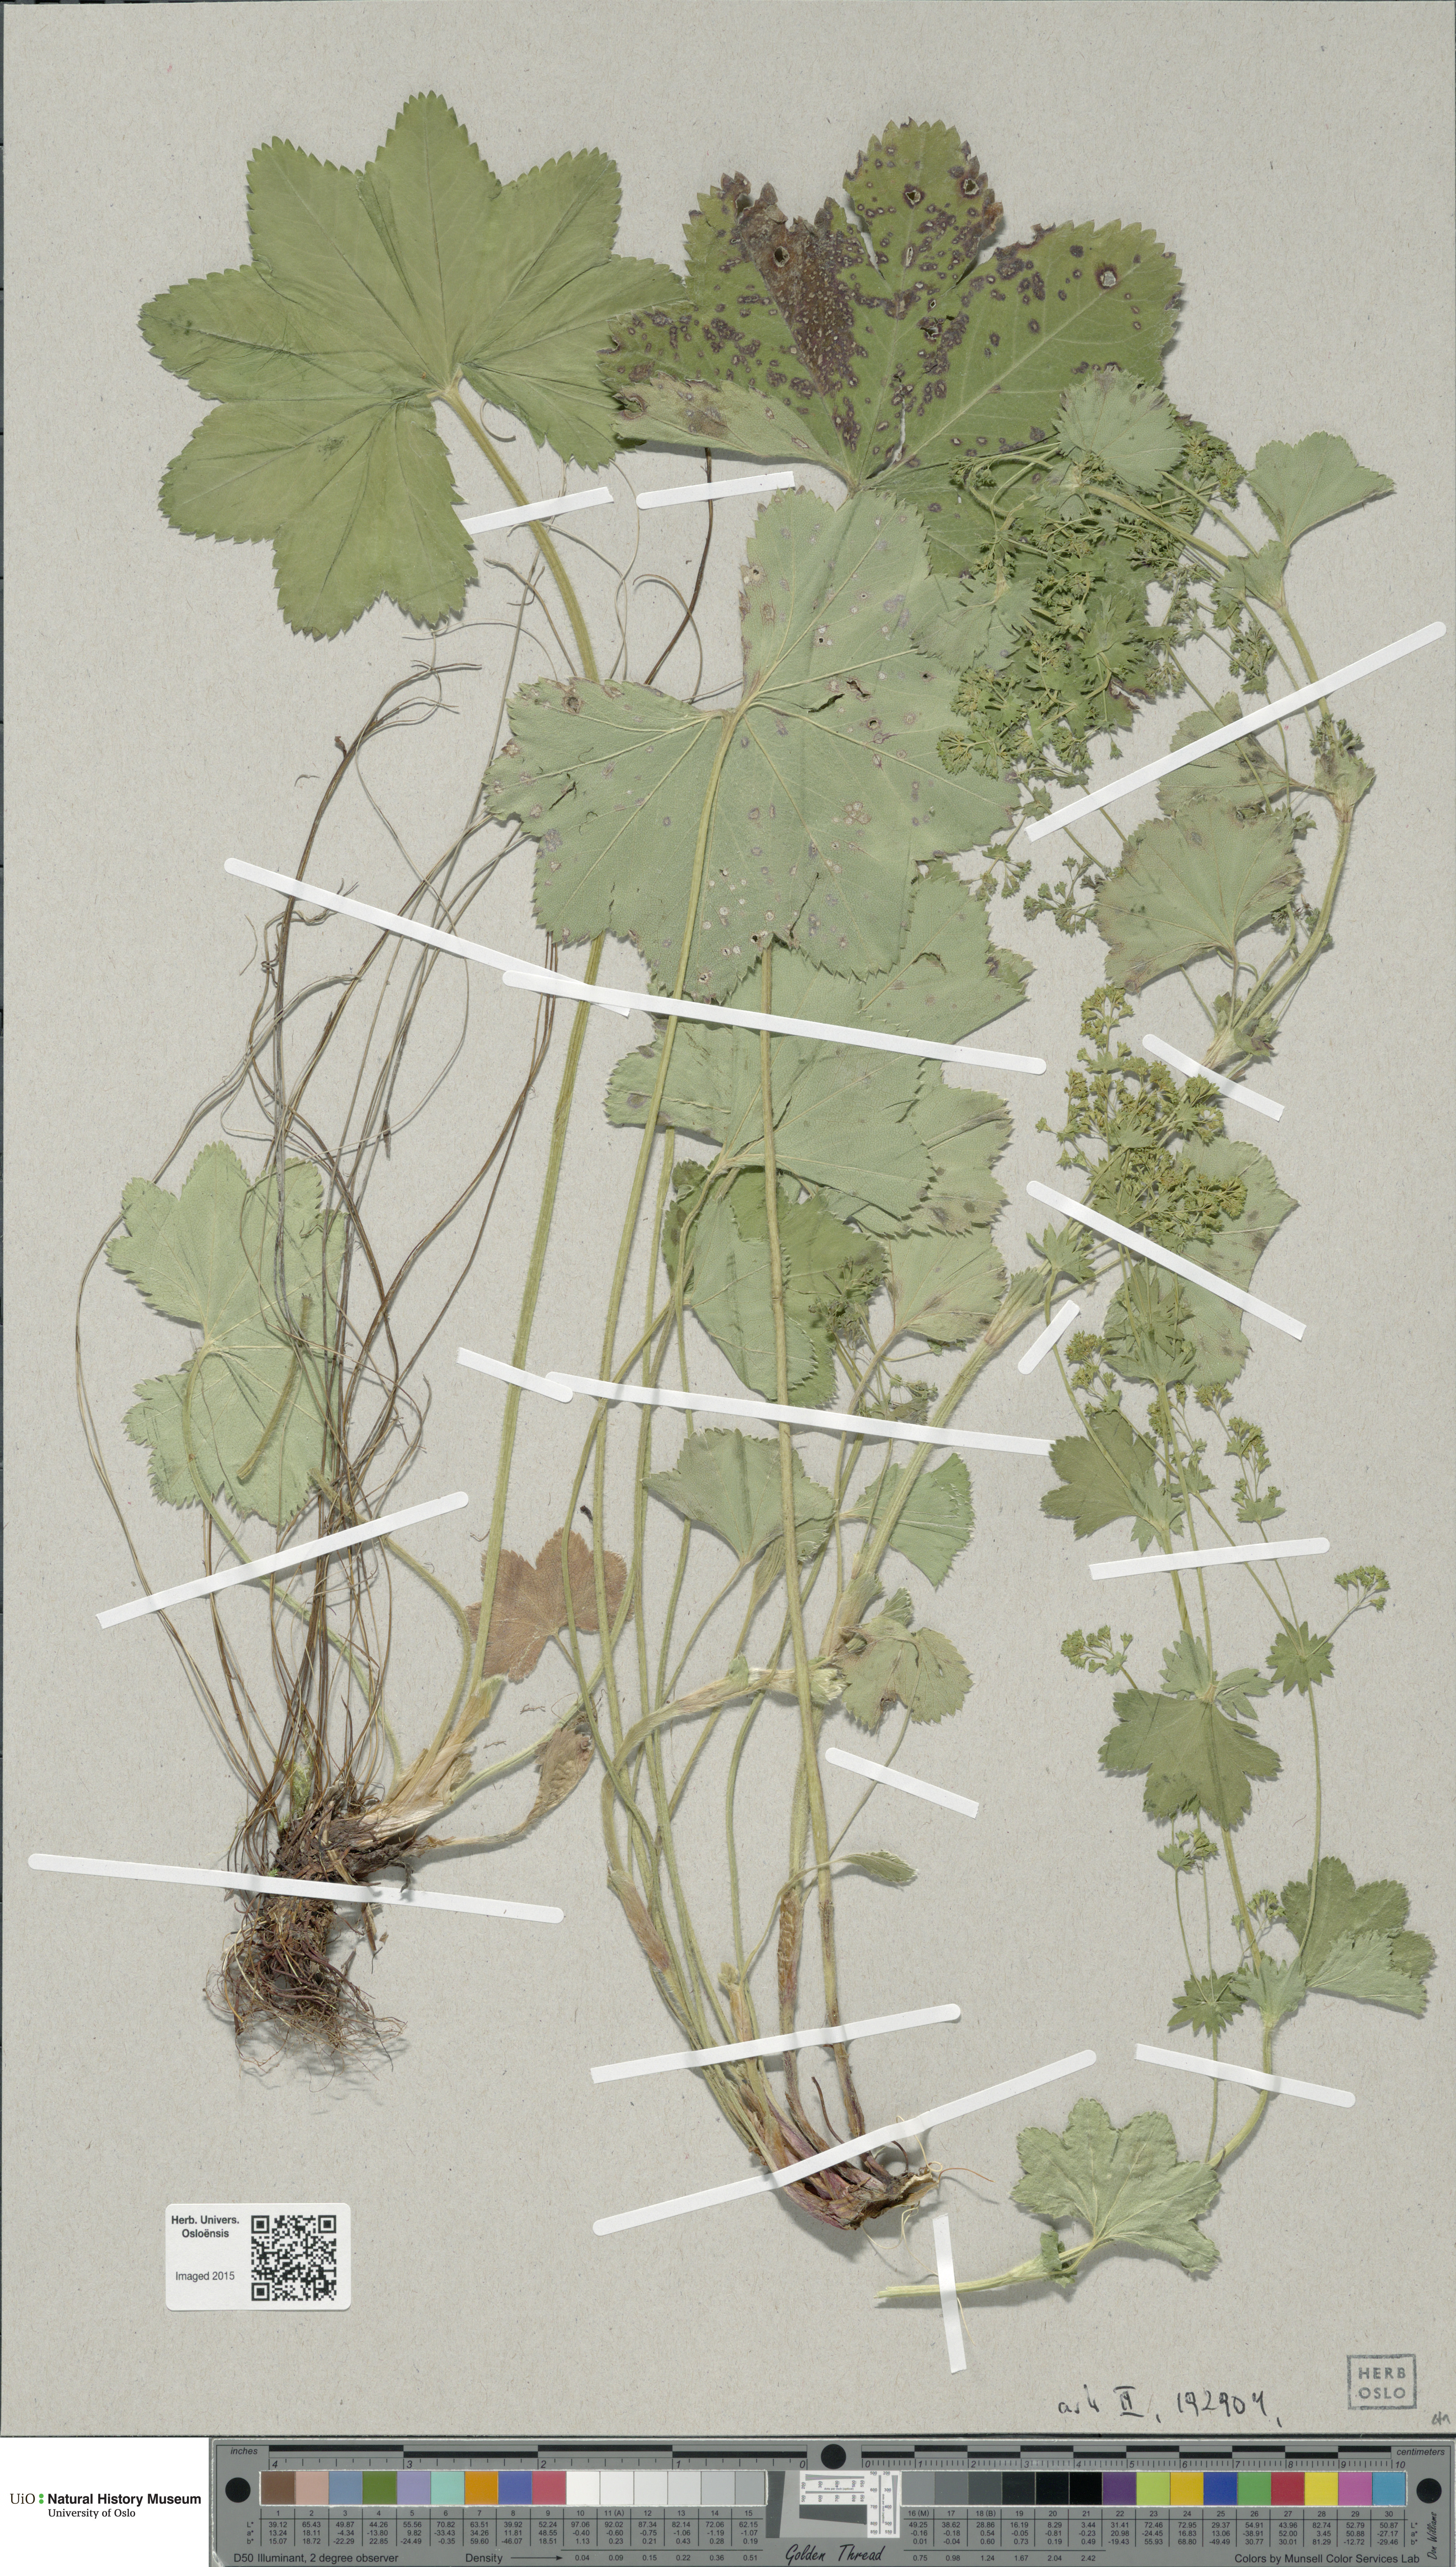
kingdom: Plantae
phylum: Tracheophyta
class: Magnoliopsida
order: Rosales
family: Rosaceae
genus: Alchemilla
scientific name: Alchemilla micans
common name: Gleaming lady's mantle
